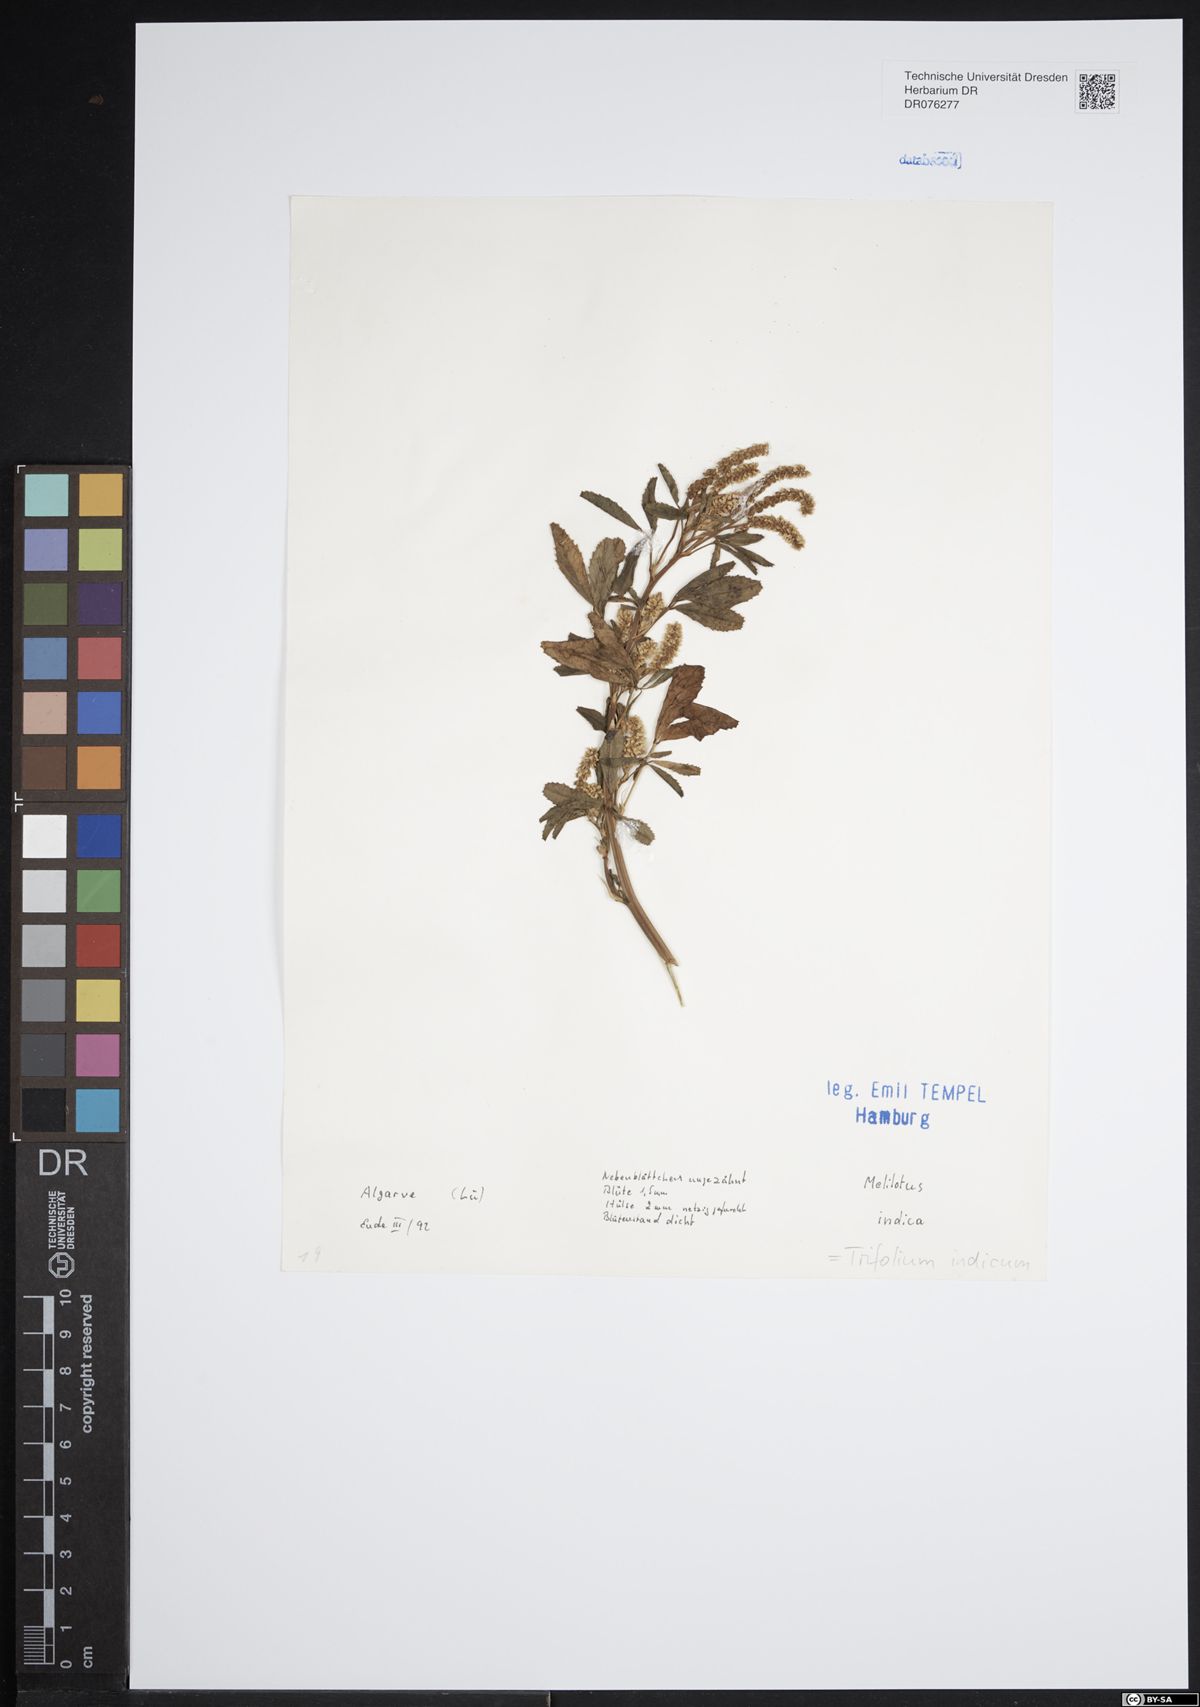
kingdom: Plantae
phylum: Tracheophyta
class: Magnoliopsida
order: Fabales
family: Fabaceae
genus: Melilotus
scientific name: Melilotus indicus
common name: Small melilot
